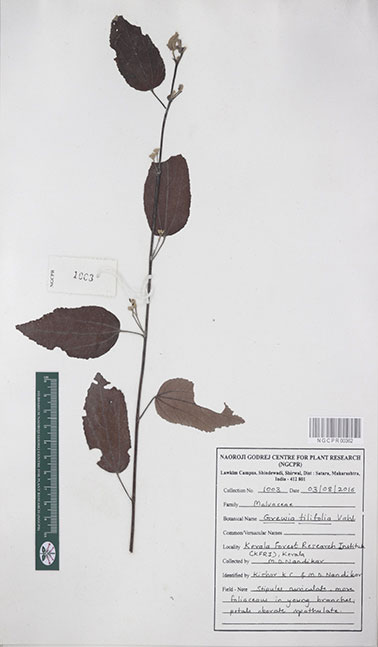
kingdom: Plantae
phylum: Tracheophyta
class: Magnoliopsida
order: Malvales
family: Malvaceae
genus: Grewia
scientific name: Grewia tiliifolia
